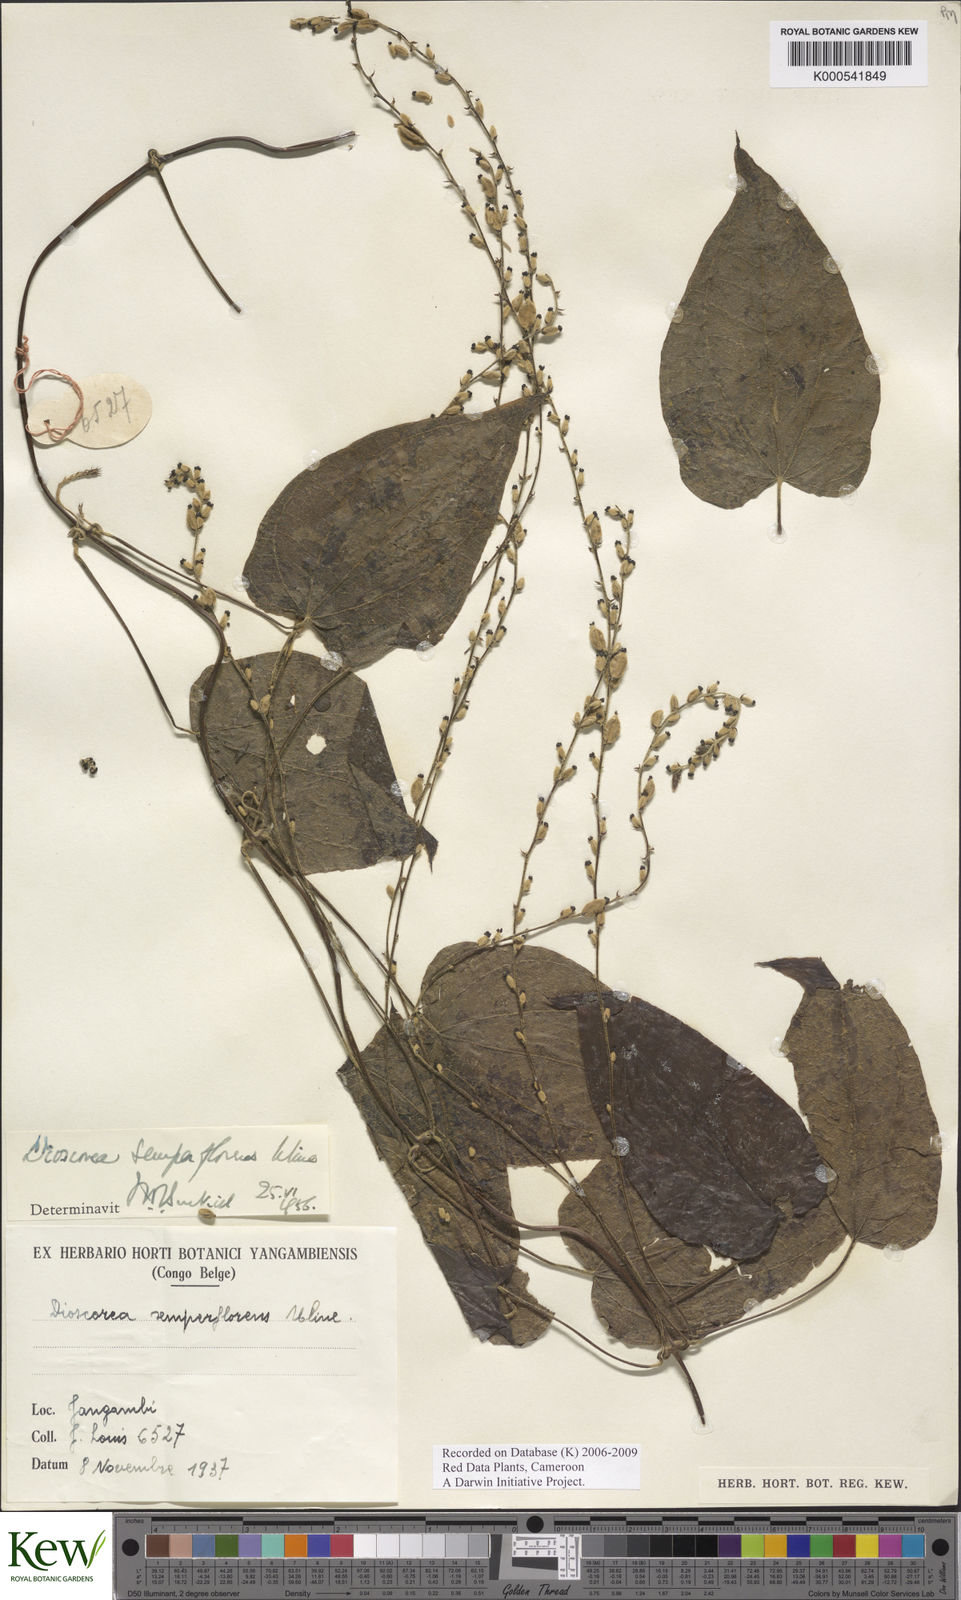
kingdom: Plantae
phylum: Tracheophyta
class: Liliopsida
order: Dioscoreales
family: Dioscoreaceae
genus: Dioscorea
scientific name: Dioscorea semperflorens
